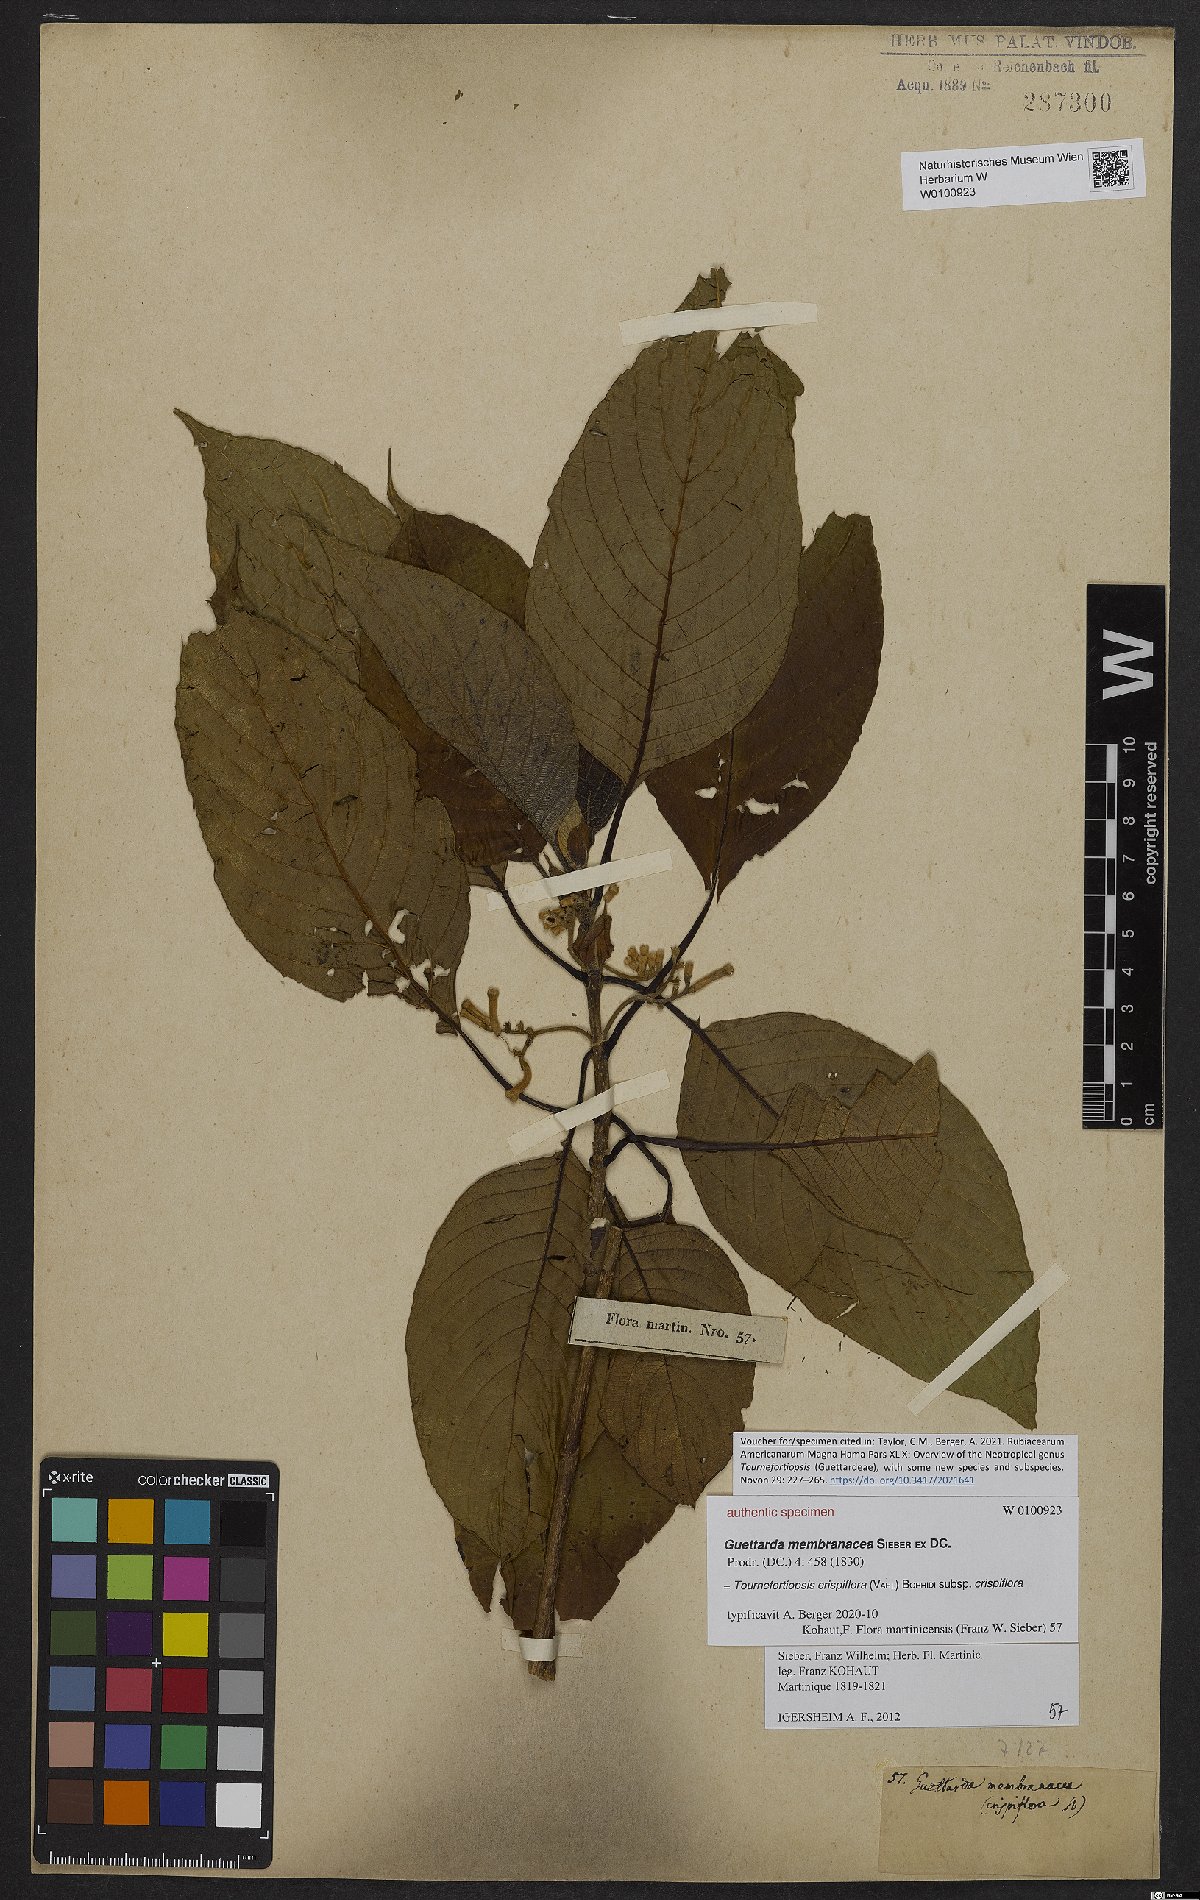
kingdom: Plantae
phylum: Tracheophyta
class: Magnoliopsida
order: Gentianales
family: Rubiaceae
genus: Tournefortiopsis
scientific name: Tournefortiopsis crispiflora
